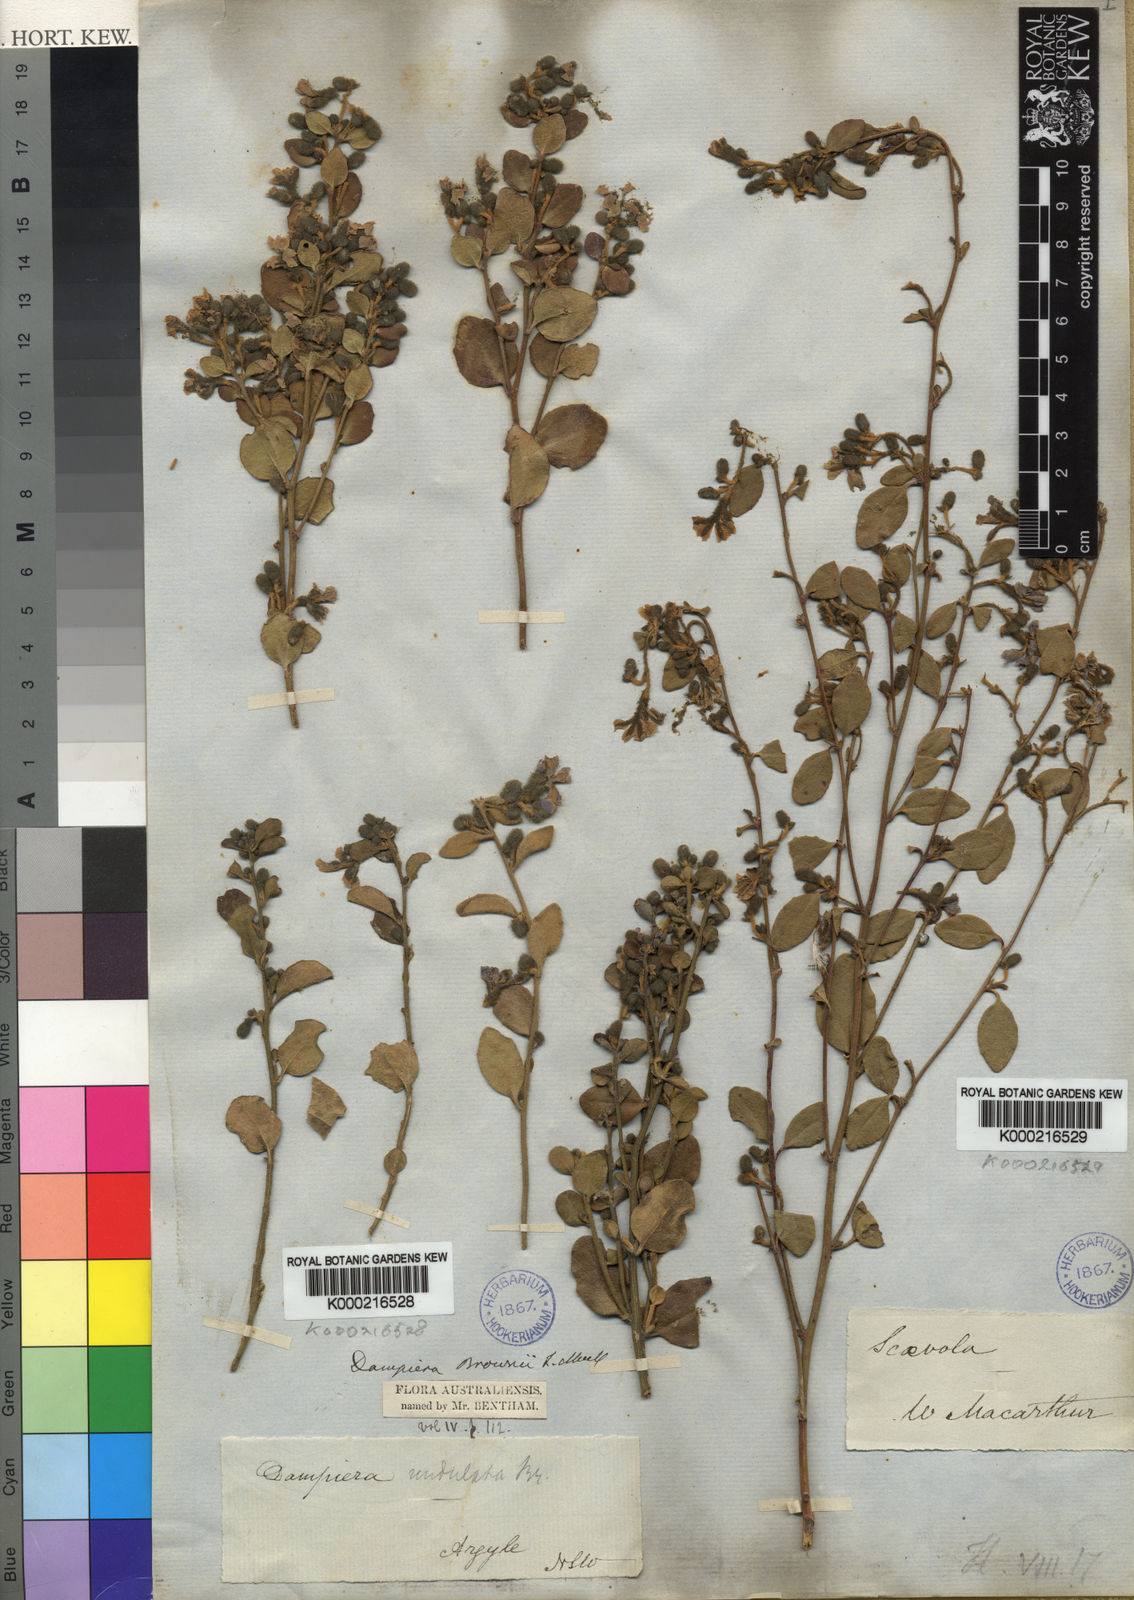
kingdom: Plantae
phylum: Tracheophyta
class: Magnoliopsida
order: Asterales
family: Goodeniaceae
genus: Dampiera
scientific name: Dampiera purpurea
